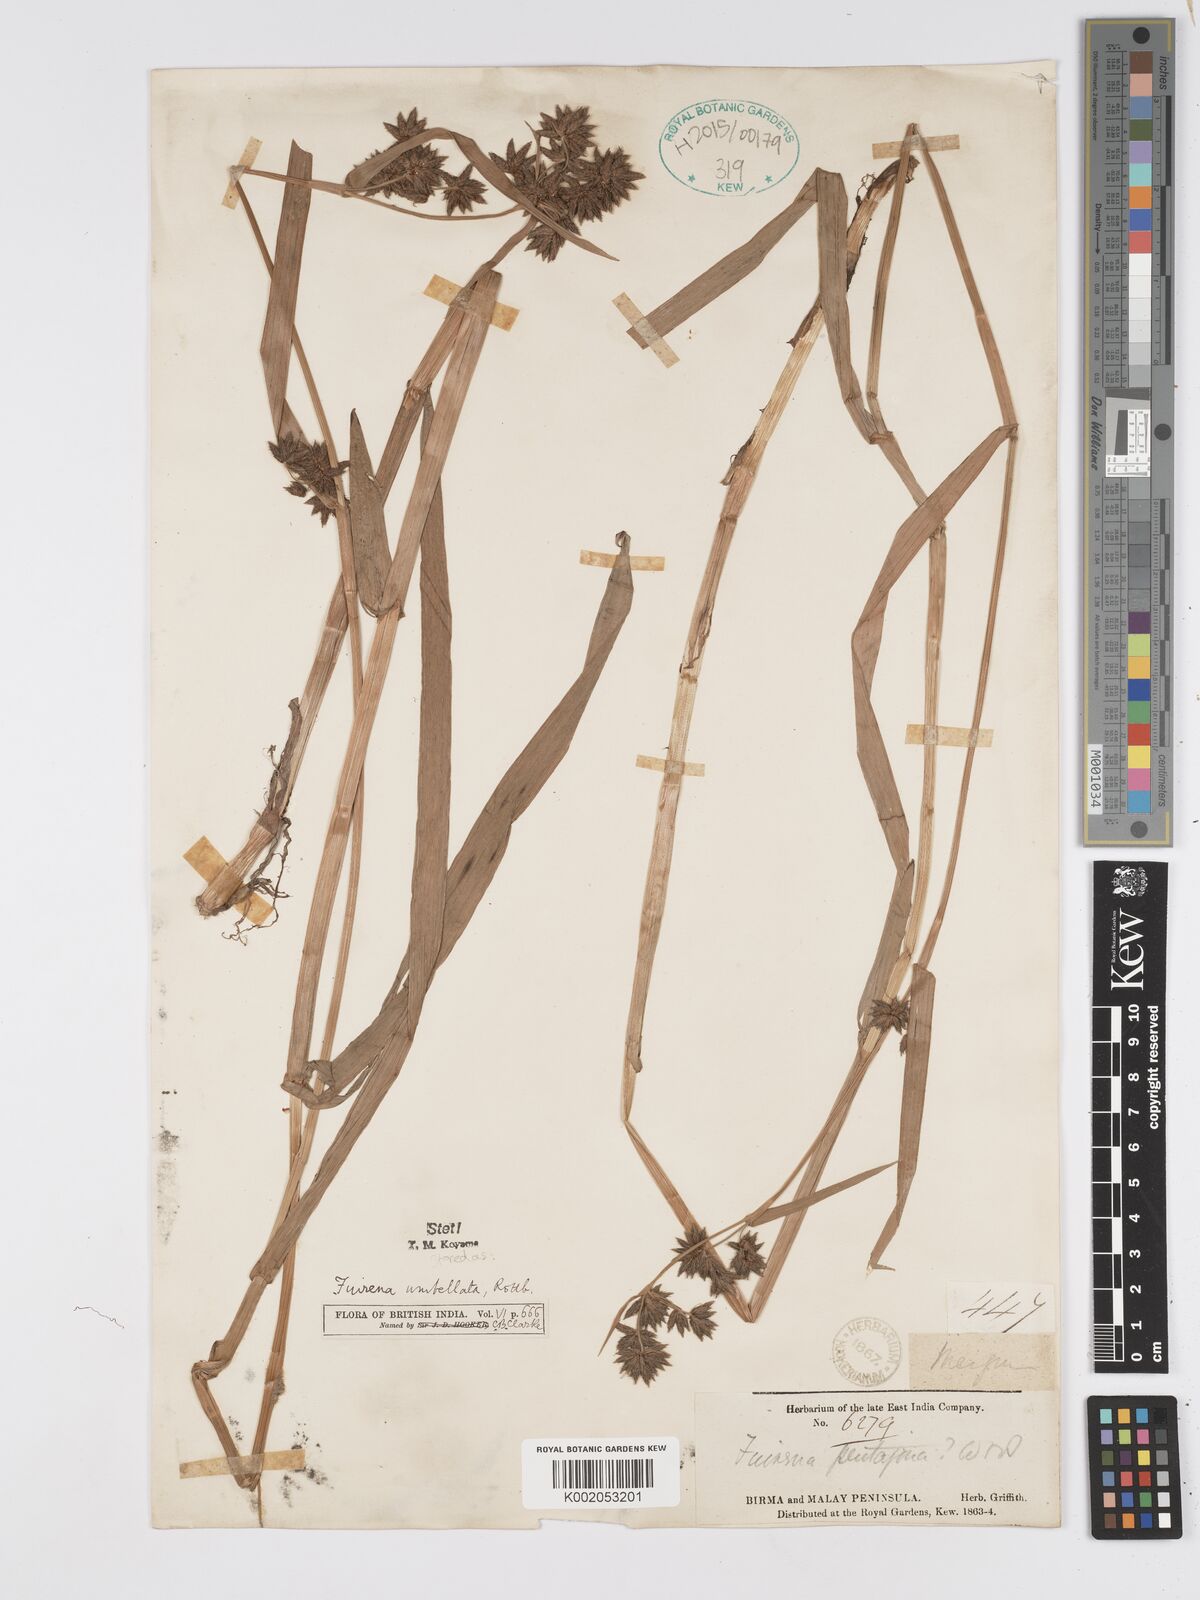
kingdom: Plantae
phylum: Tracheophyta
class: Liliopsida
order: Poales
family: Cyperaceae
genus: Fuirena
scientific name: Fuirena umbellata
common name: Yefen
